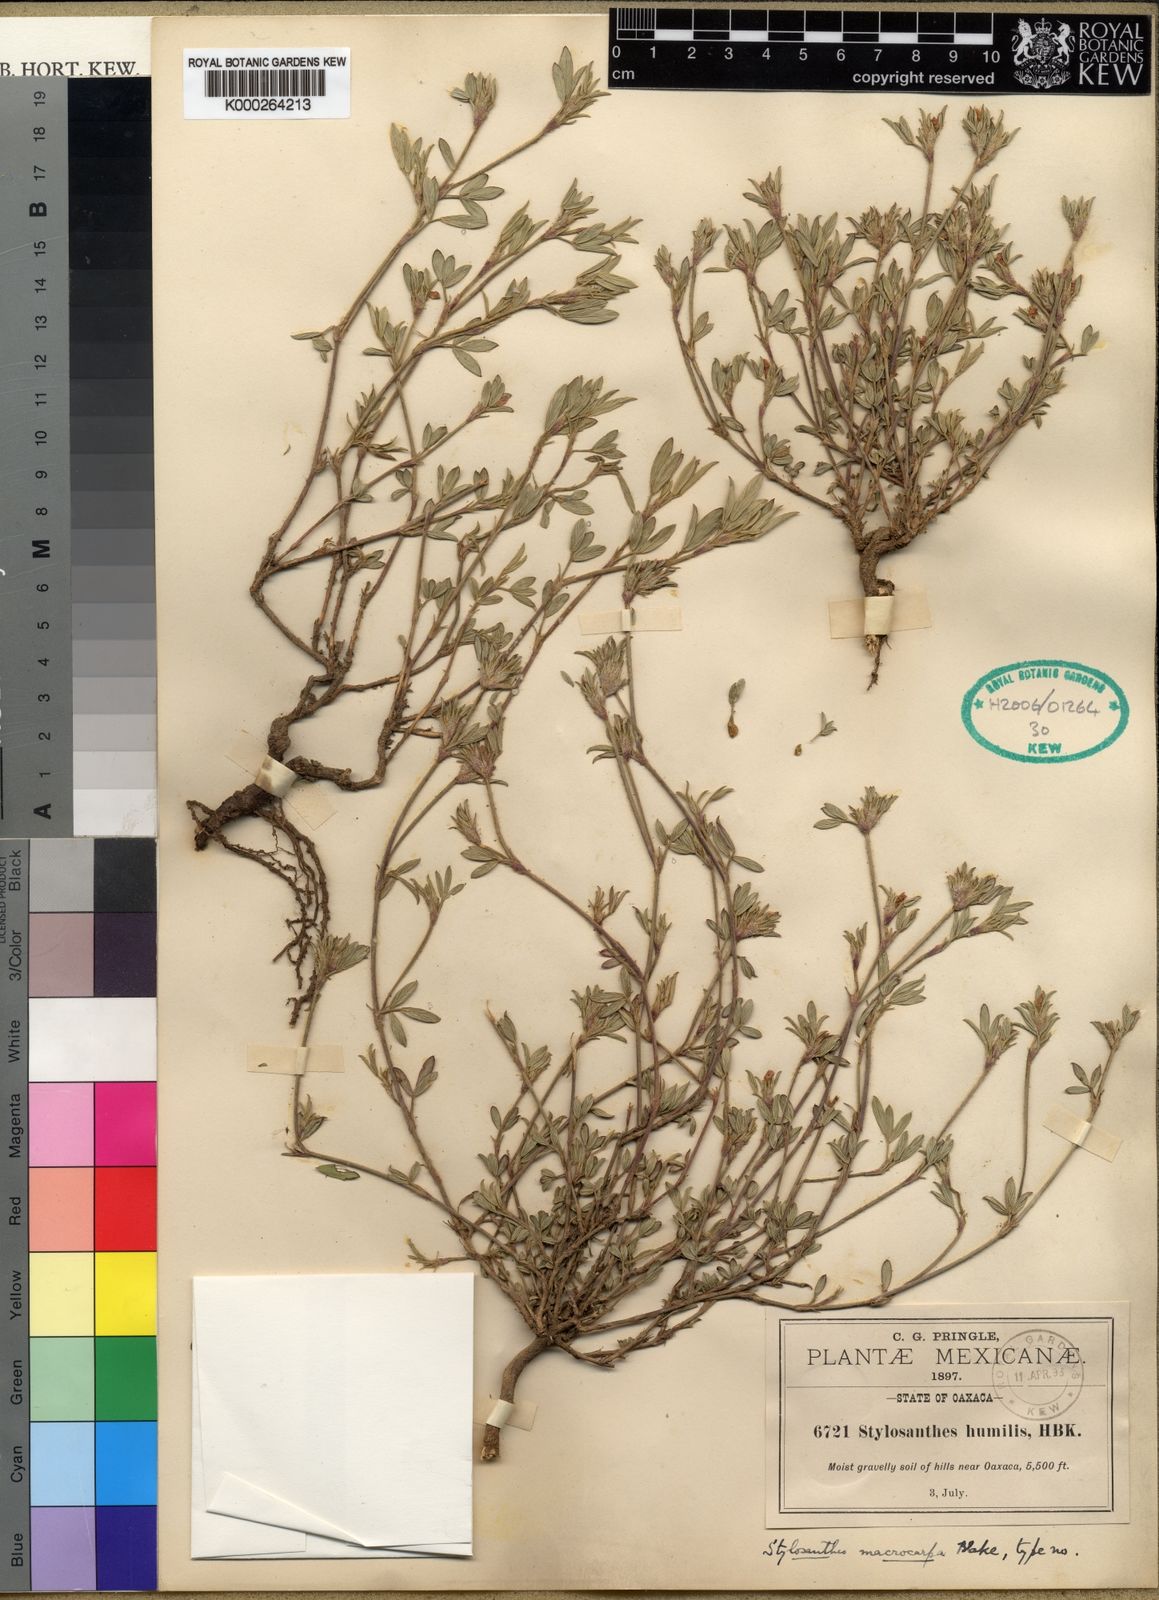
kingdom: Plantae
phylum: Tracheophyta
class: Magnoliopsida
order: Fabales
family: Fabaceae
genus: Stylosanthes
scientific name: Stylosanthes macrocarpa
